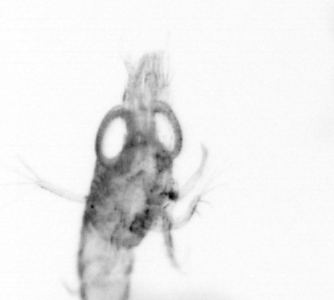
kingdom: Animalia
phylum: Arthropoda
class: Copepoda
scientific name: Copepoda
